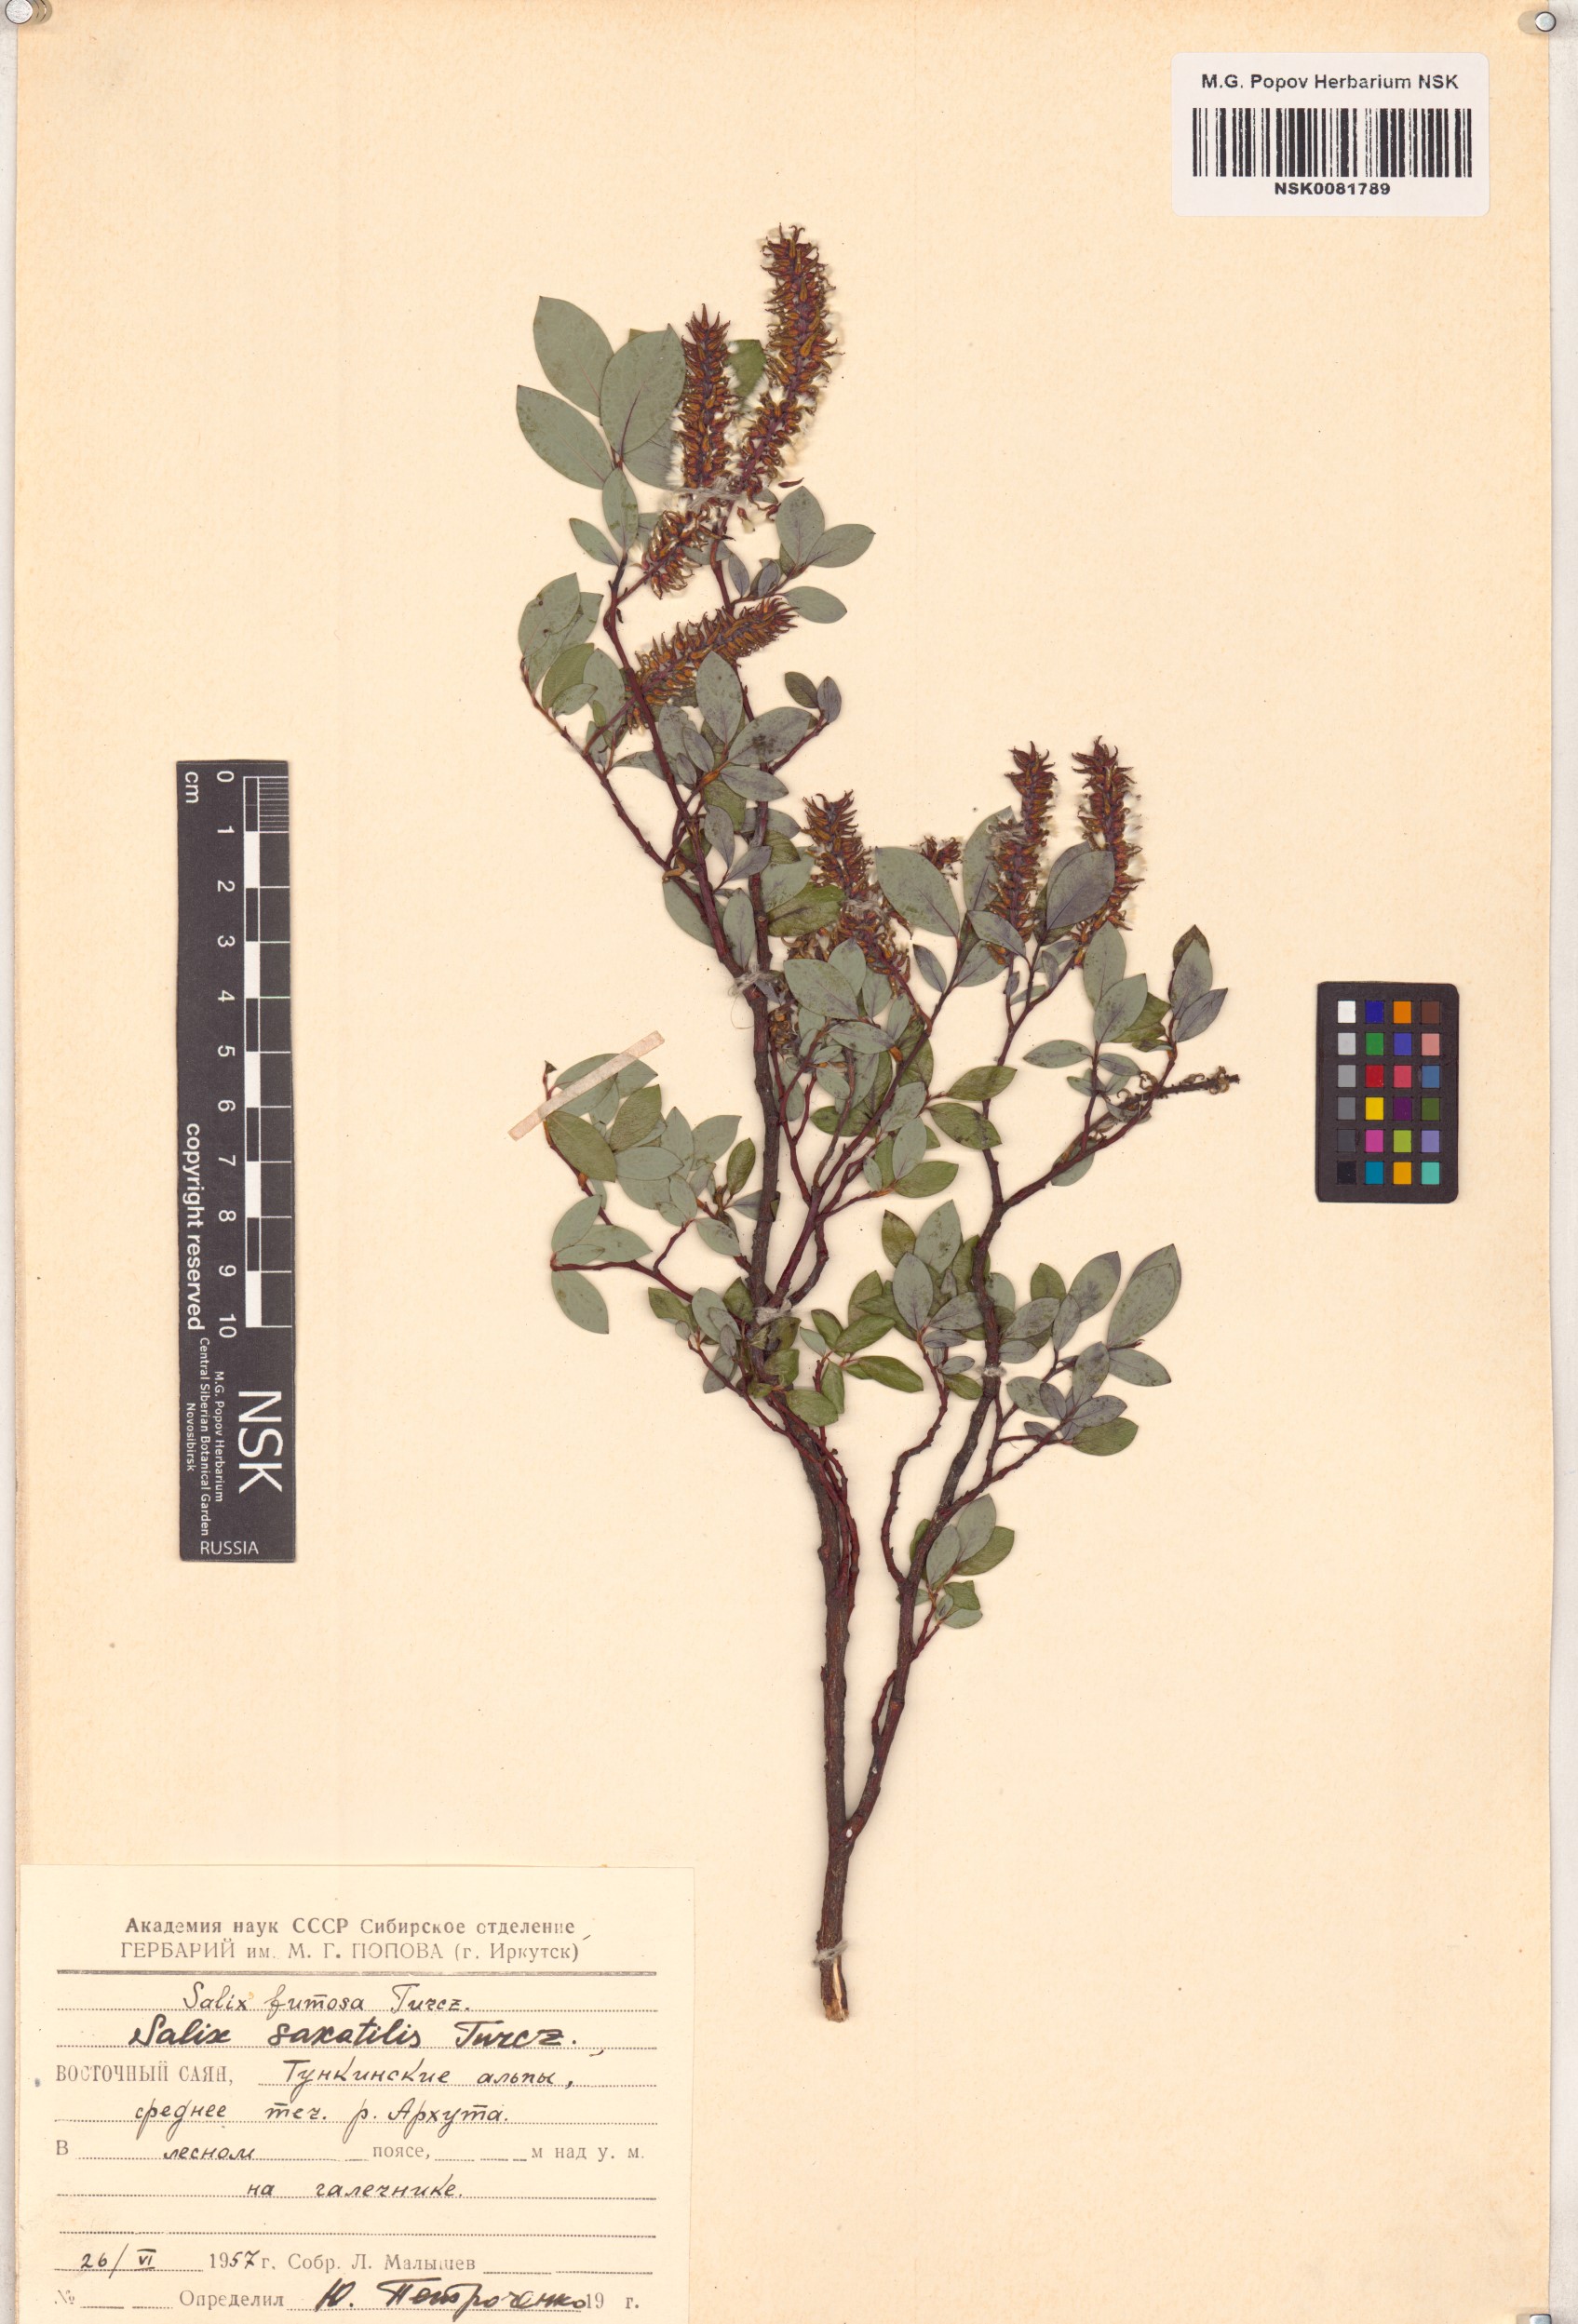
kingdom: Plantae
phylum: Tracheophyta
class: Magnoliopsida
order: Malpighiales
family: Salicaceae
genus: Salix
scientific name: Salix saxatilis
